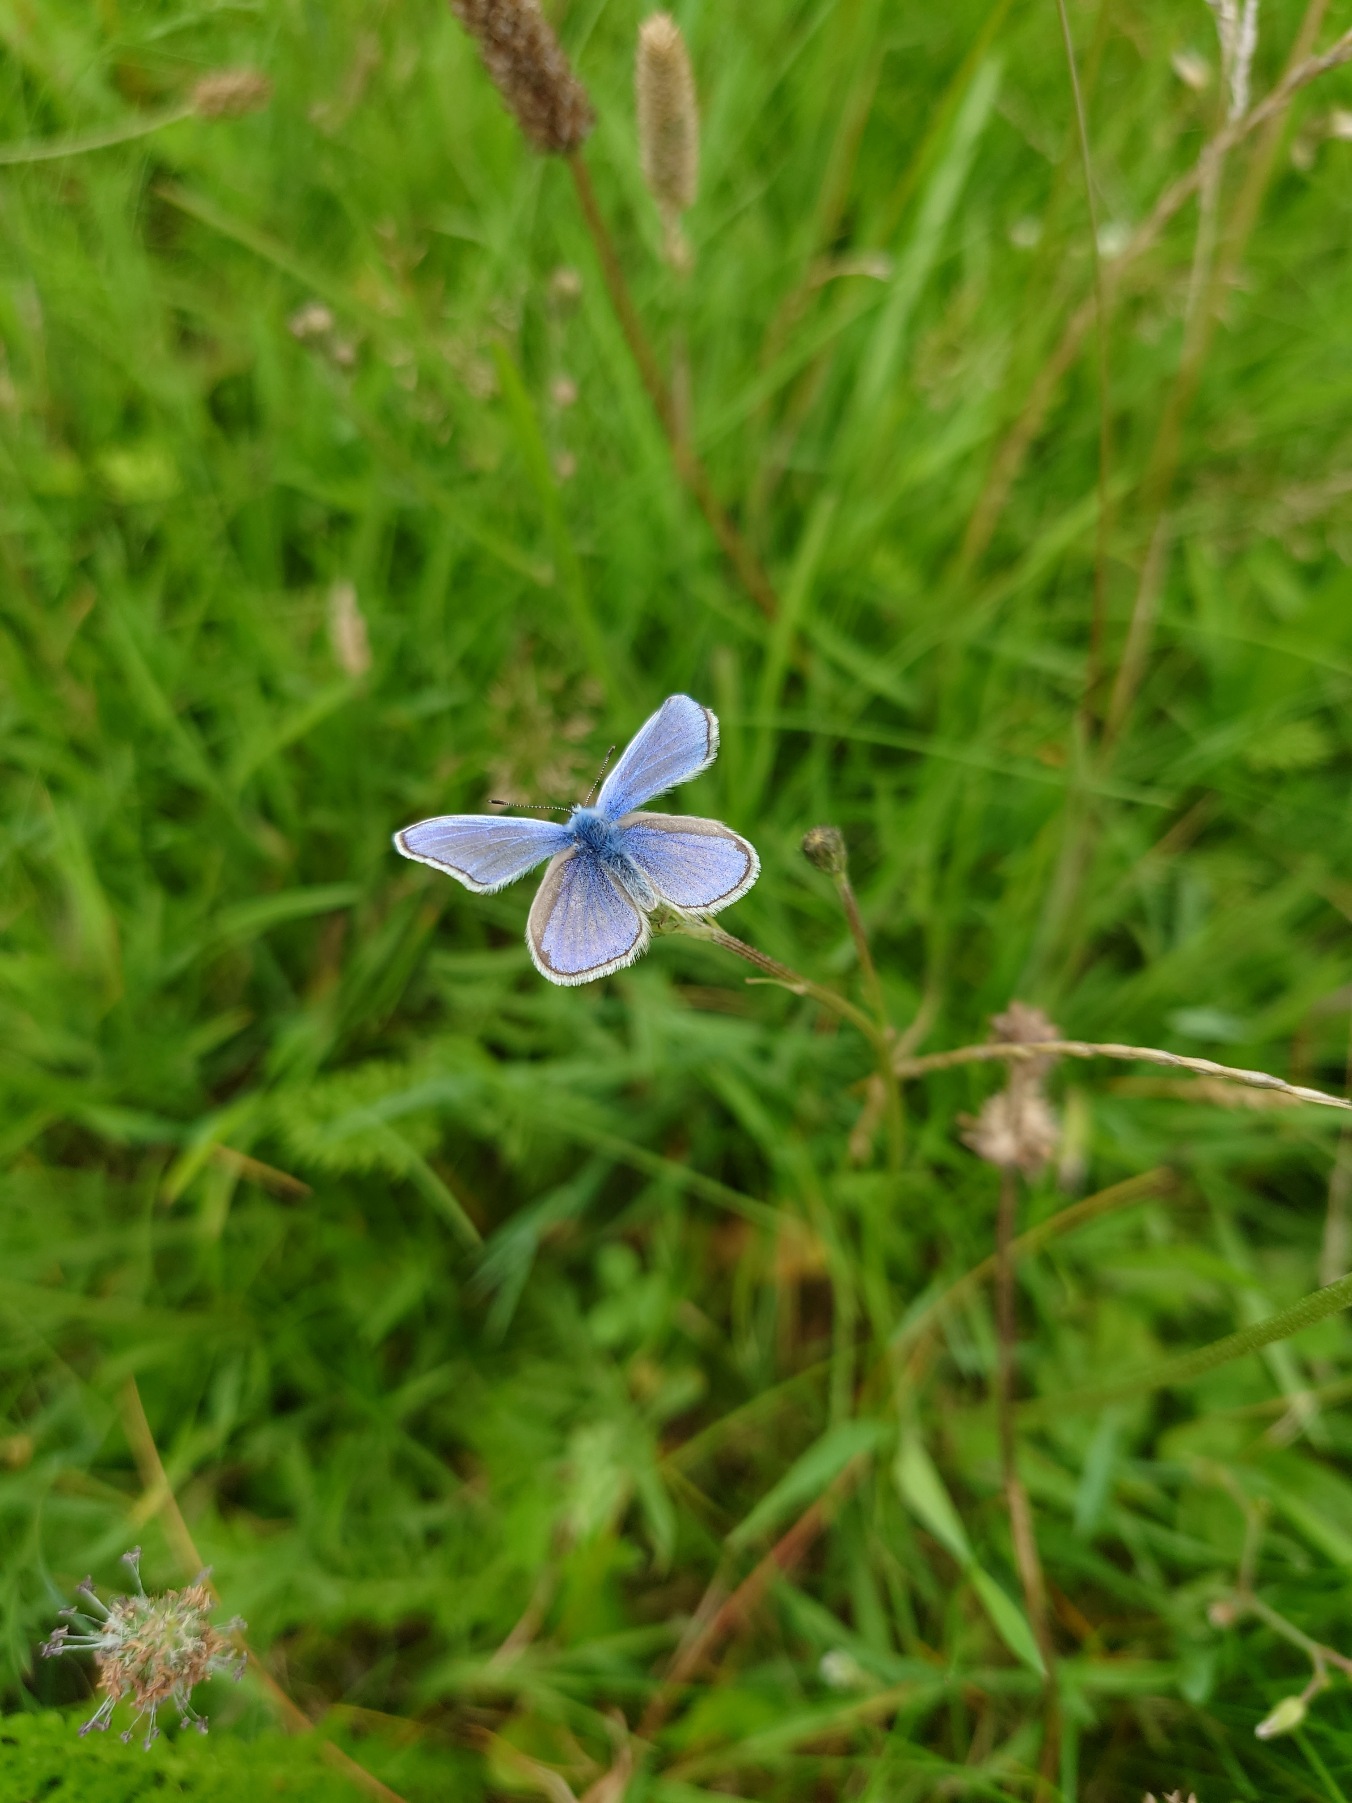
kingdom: Animalia
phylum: Arthropoda
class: Insecta
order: Lepidoptera
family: Lycaenidae
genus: Polyommatus
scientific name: Polyommatus icarus
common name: Almindelig blåfugl
